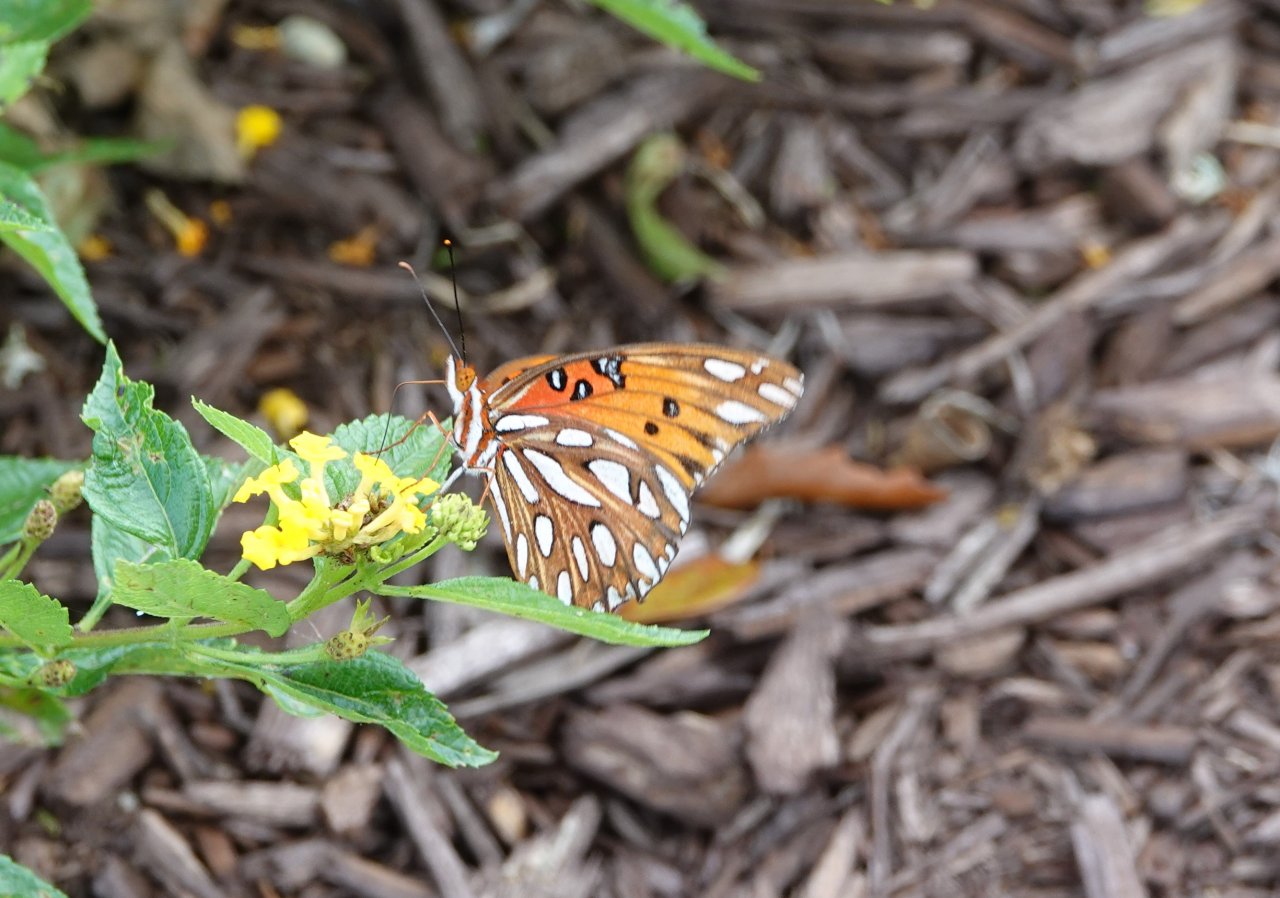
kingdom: Animalia
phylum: Arthropoda
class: Insecta
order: Lepidoptera
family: Nymphalidae
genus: Dione
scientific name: Dione vanillae
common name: Gulf Fritillary
